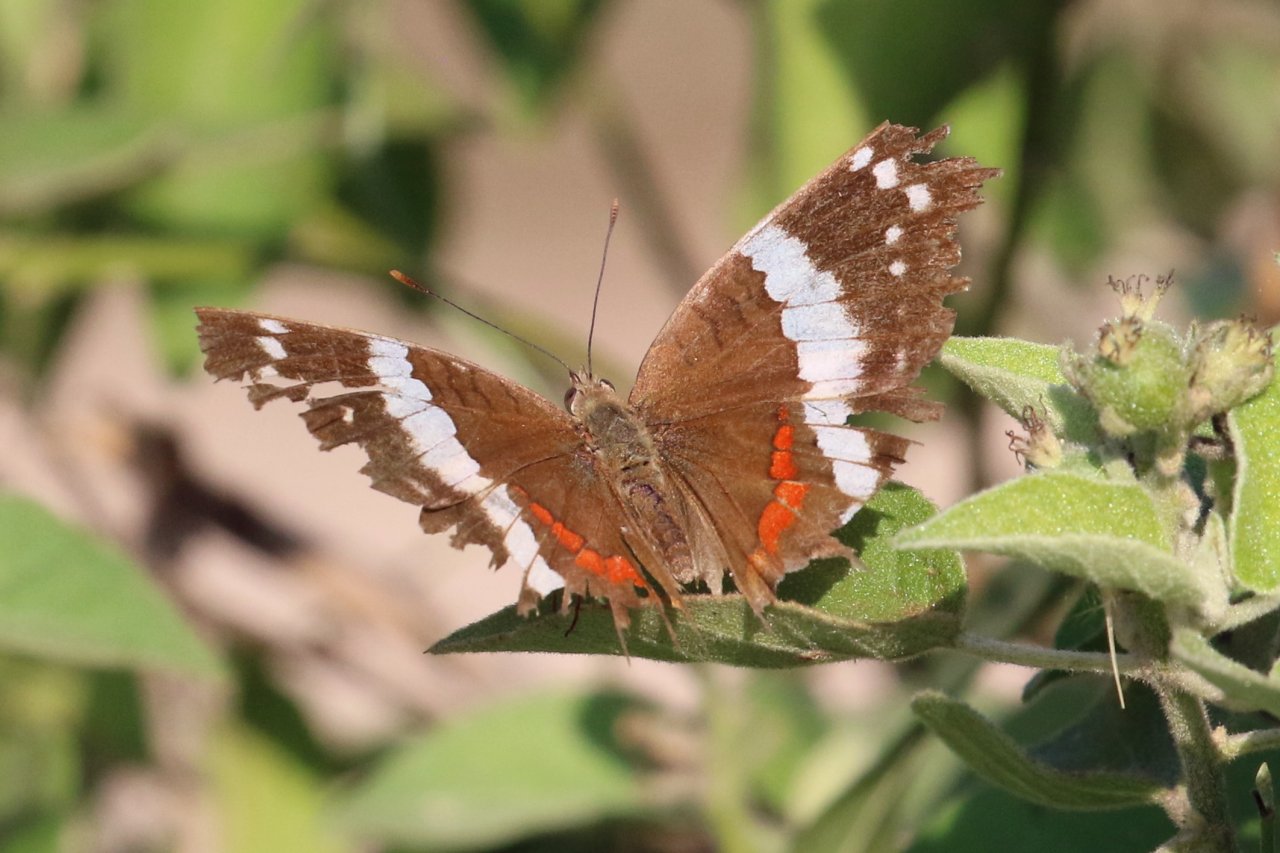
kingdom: Animalia
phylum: Arthropoda
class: Insecta
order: Lepidoptera
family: Nymphalidae
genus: Anartia
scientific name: Anartia fatima
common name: Banded Peacock
